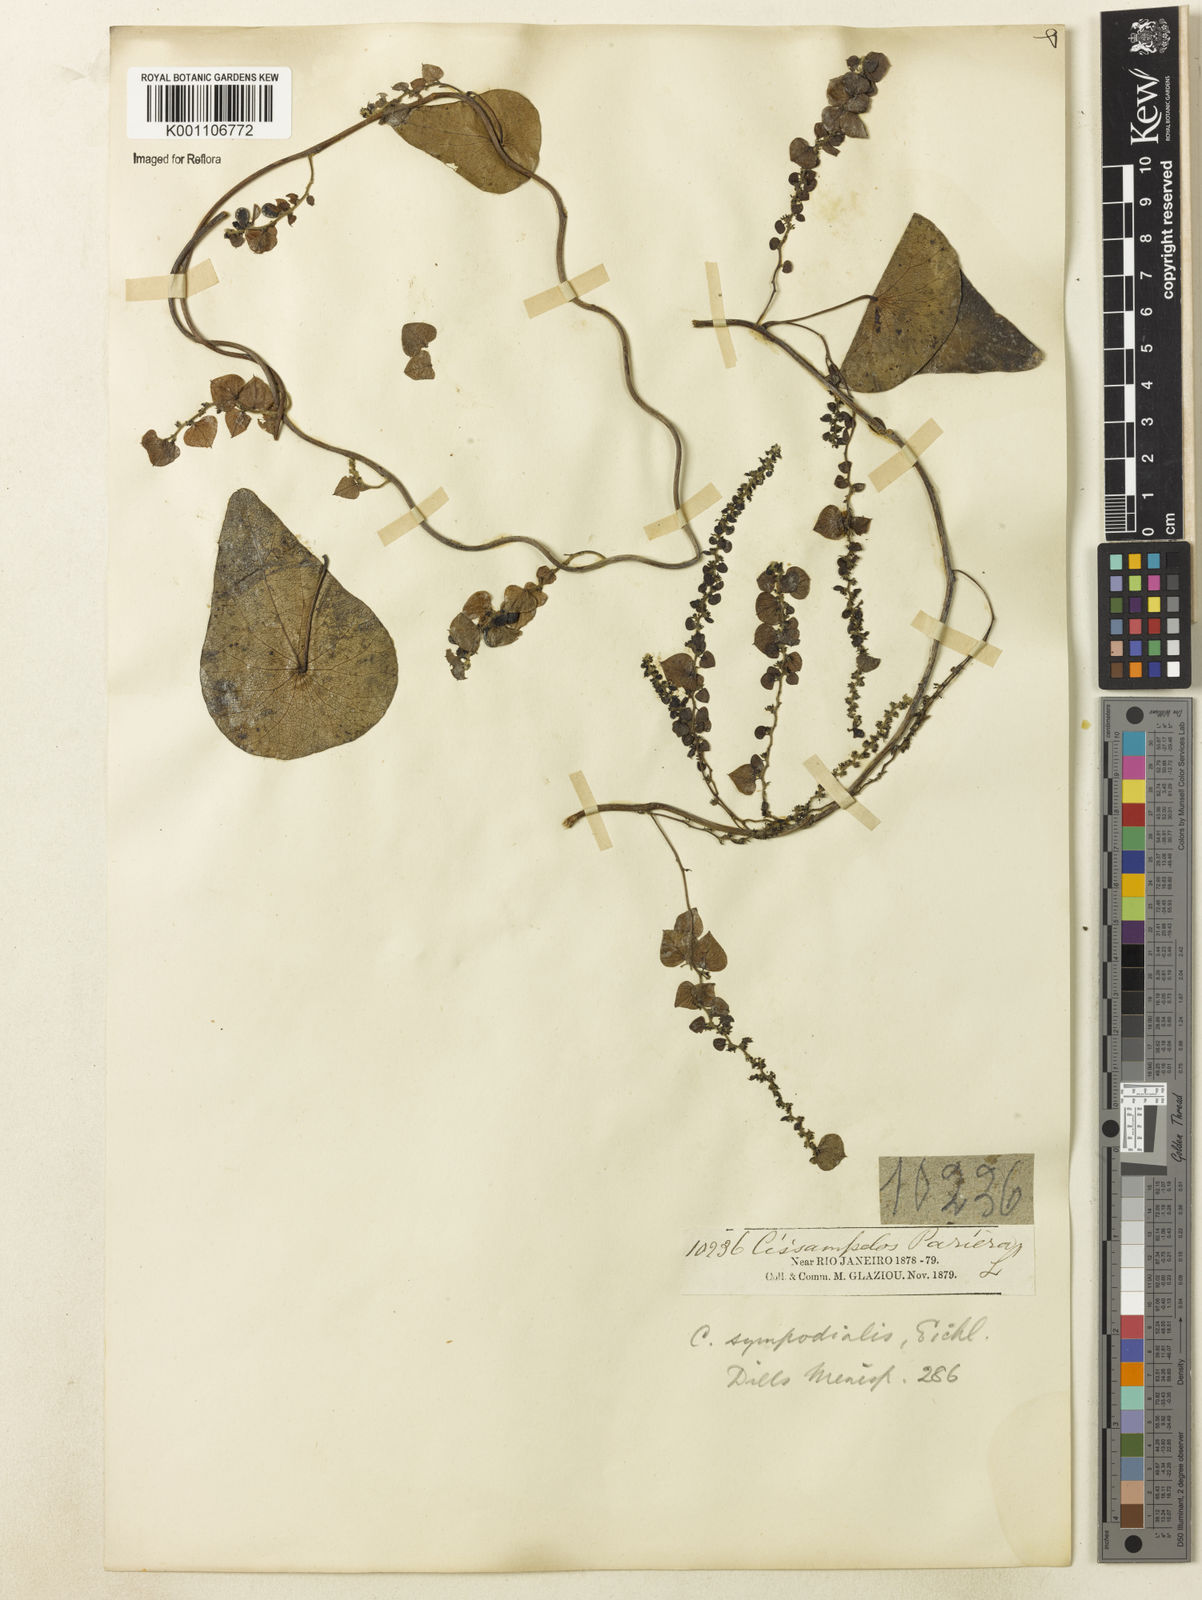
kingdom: Plantae
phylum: Tracheophyta
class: Magnoliopsida
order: Ranunculales
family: Menispermaceae
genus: Cissampelos
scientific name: Cissampelos sympodialis
